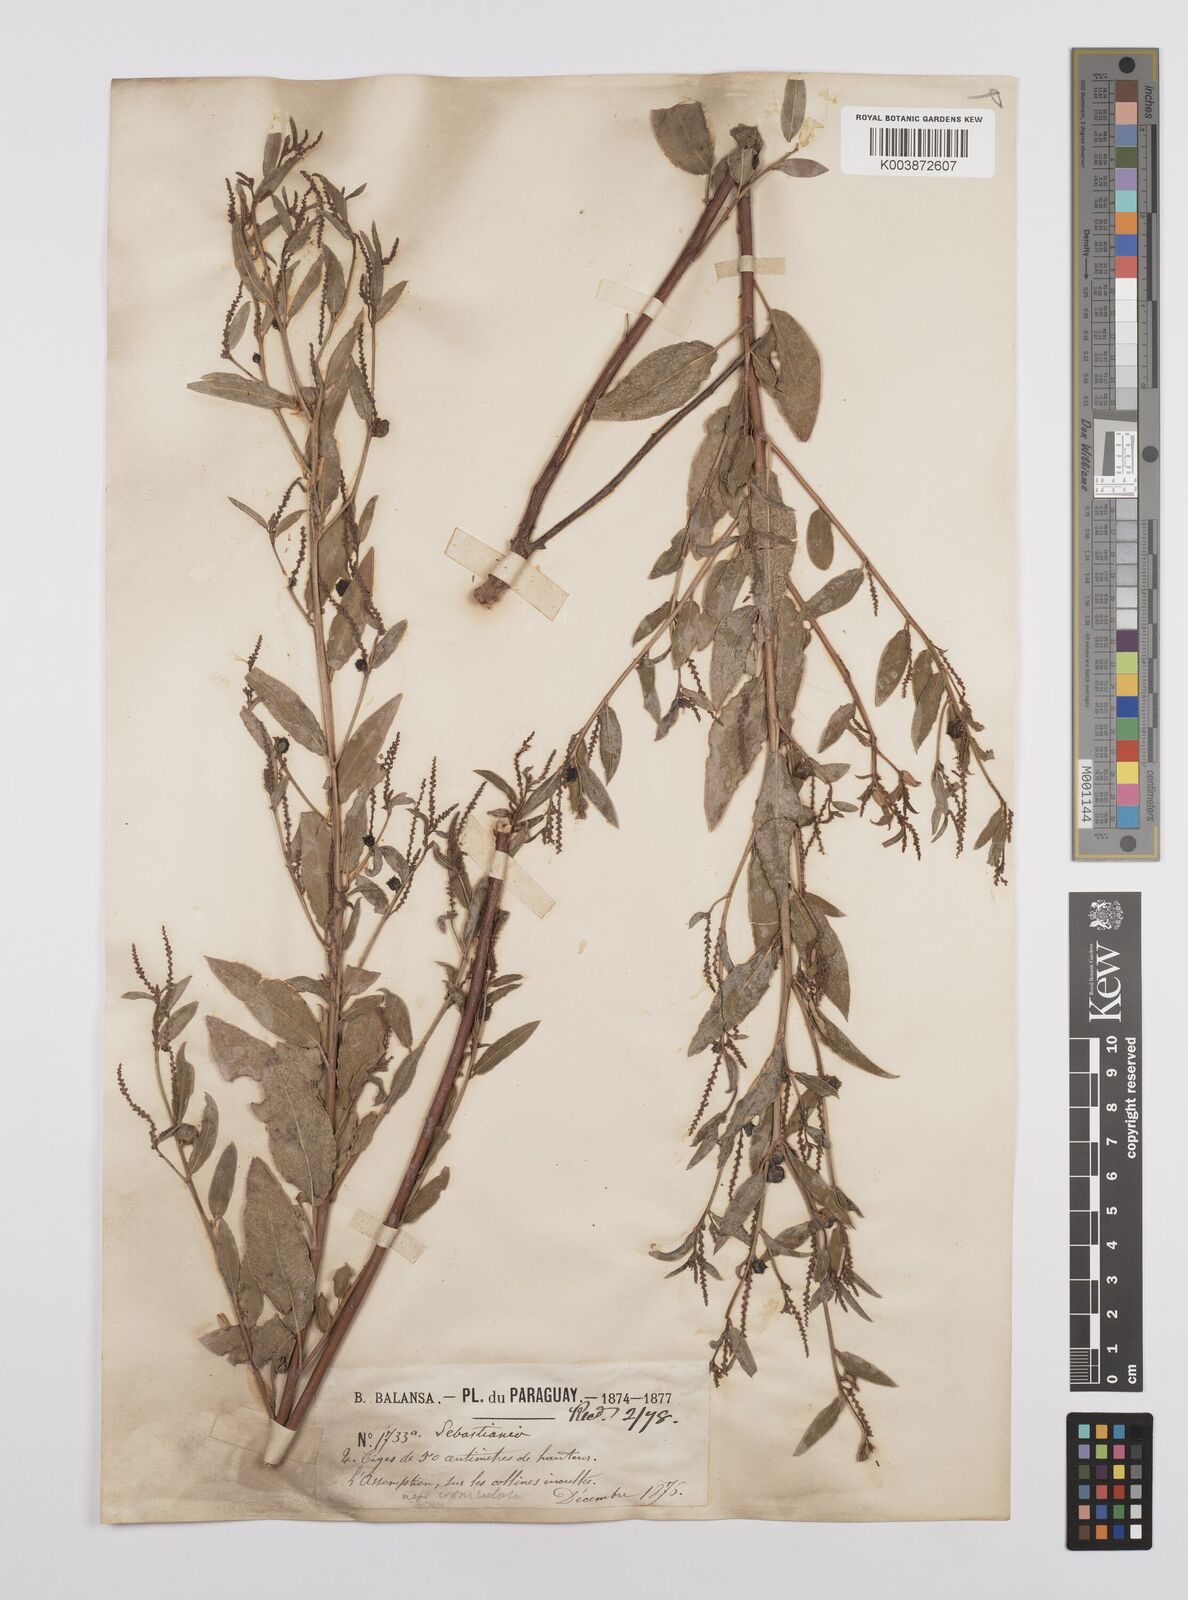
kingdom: Plantae
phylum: Tracheophyta
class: Magnoliopsida
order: Malpighiales
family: Euphorbiaceae
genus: Microstachys
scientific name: Microstachys corniculata
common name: Hato tejas
